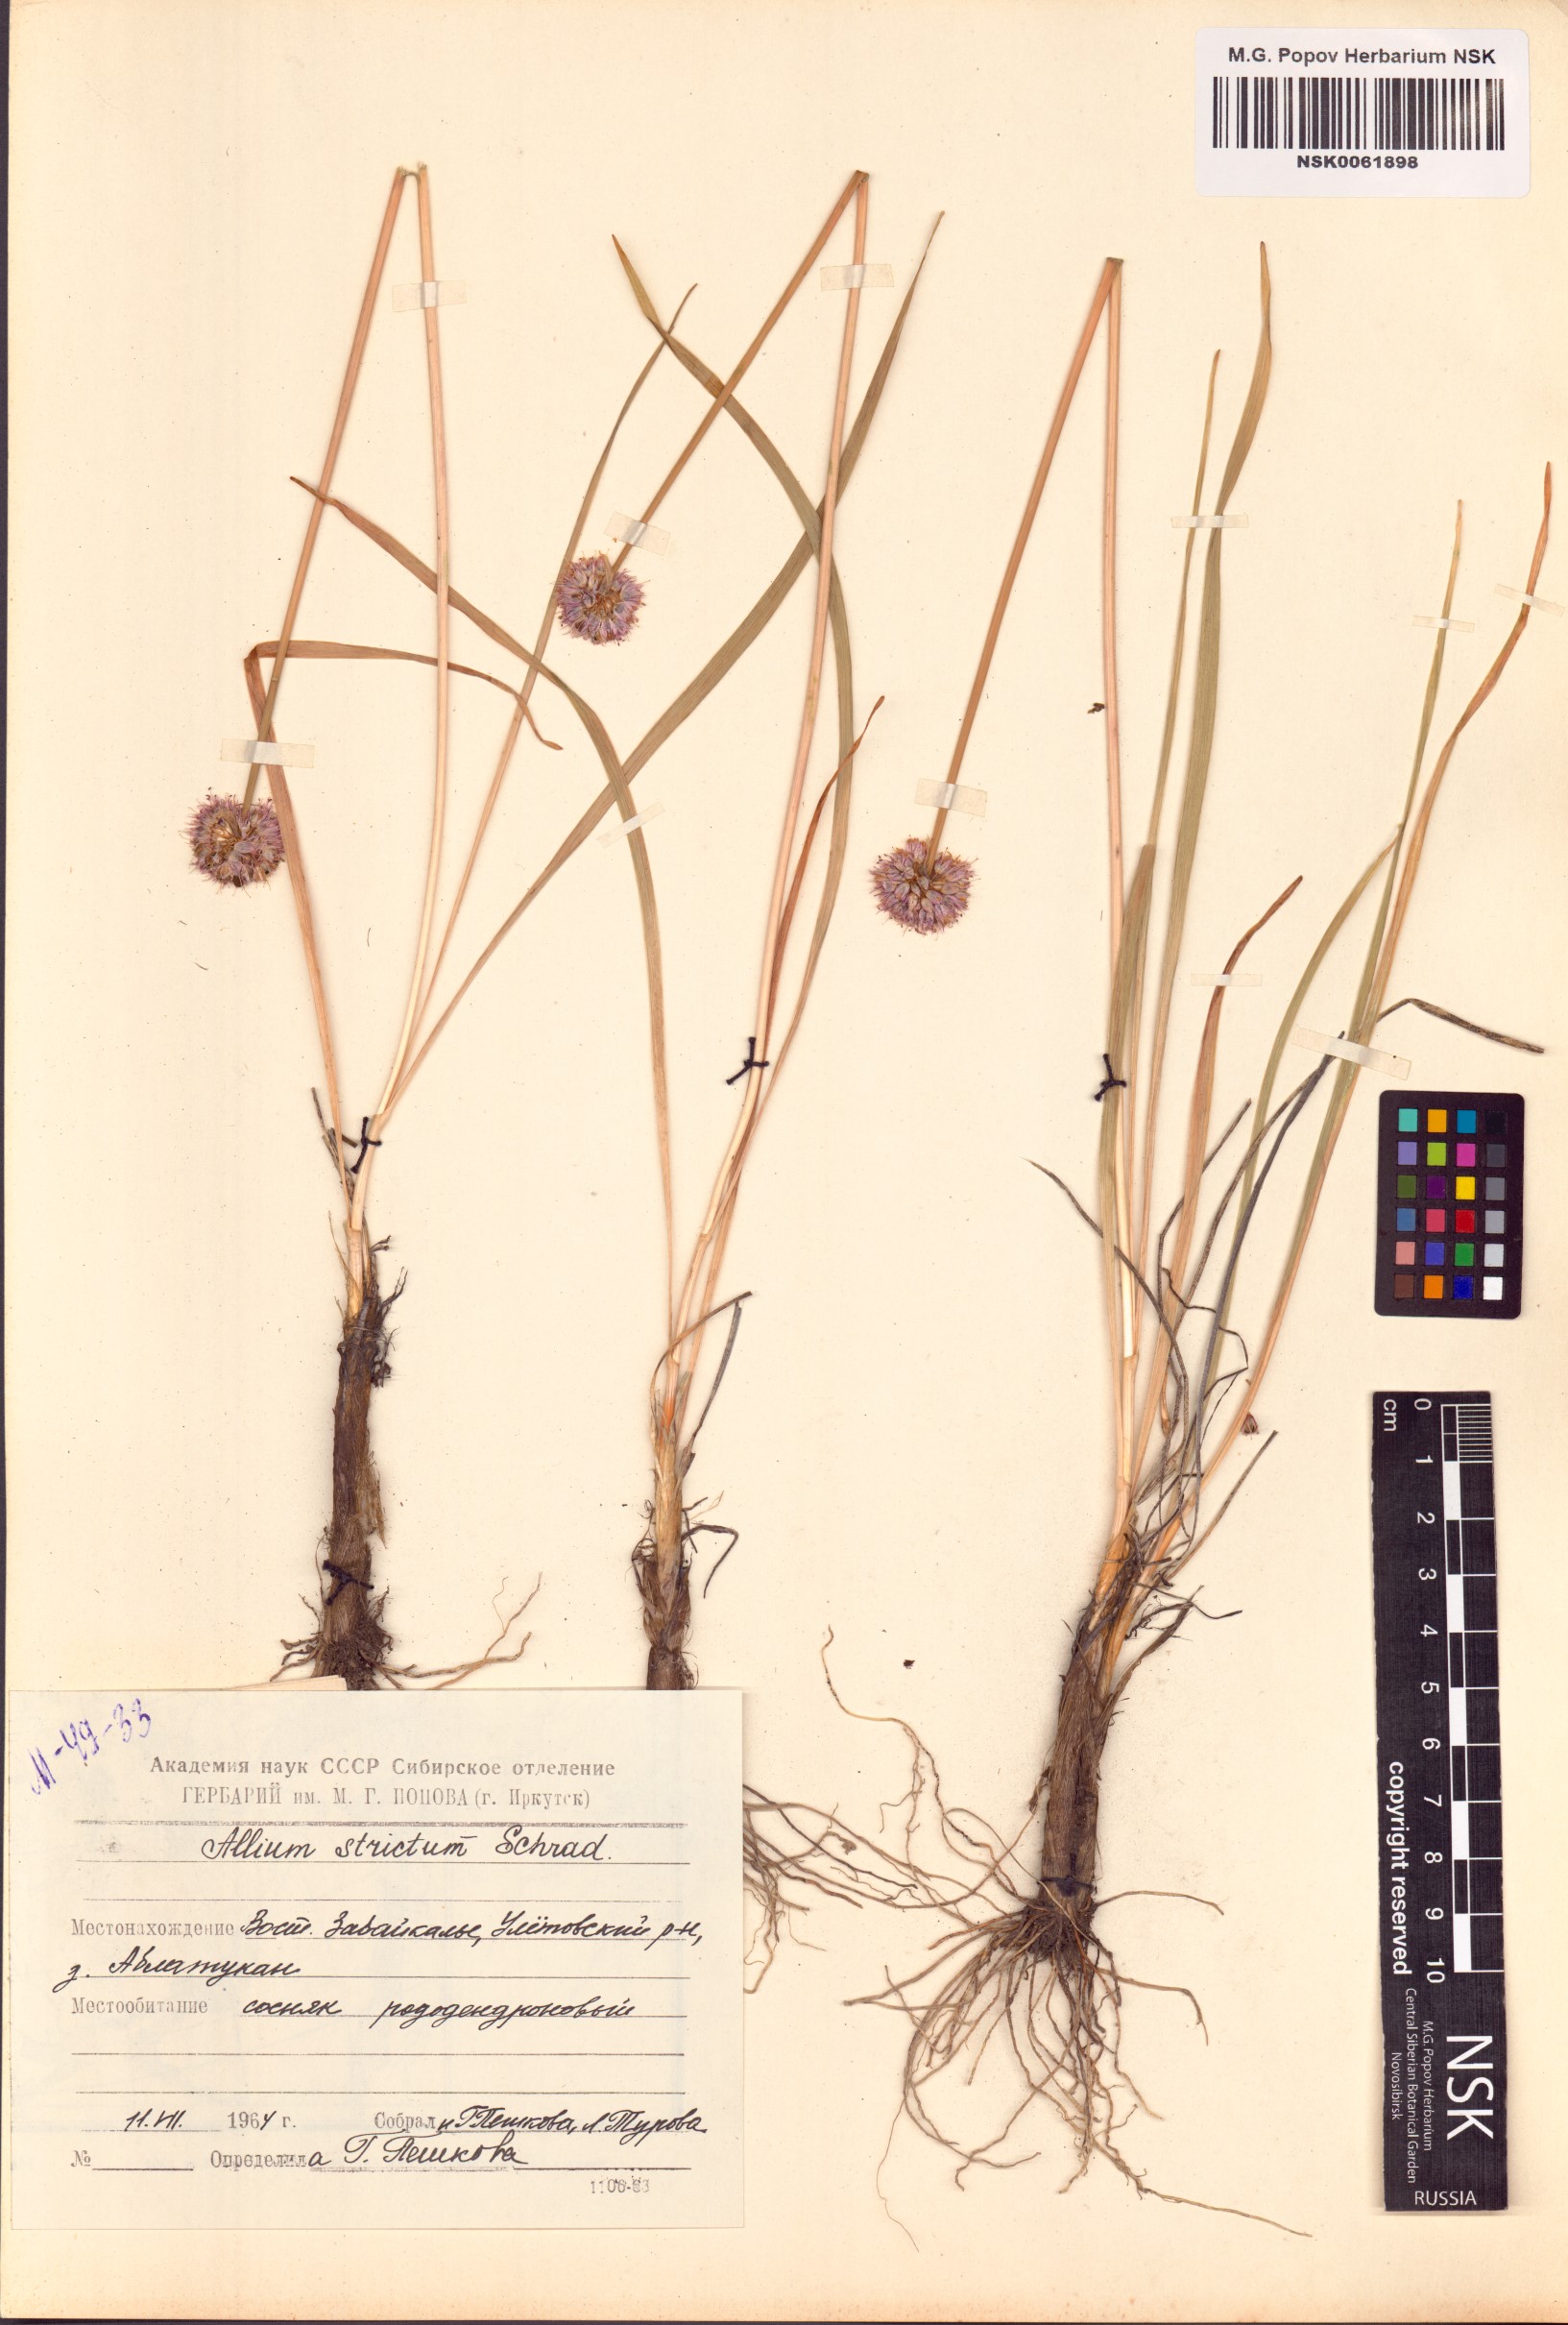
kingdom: Plantae
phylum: Tracheophyta
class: Liliopsida
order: Asparagales
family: Amaryllidaceae
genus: Allium
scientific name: Allium strictum
